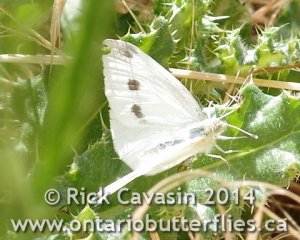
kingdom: Animalia
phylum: Arthropoda
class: Insecta
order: Lepidoptera
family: Pieridae
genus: Pieris
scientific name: Pieris rapae
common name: Cabbage White
